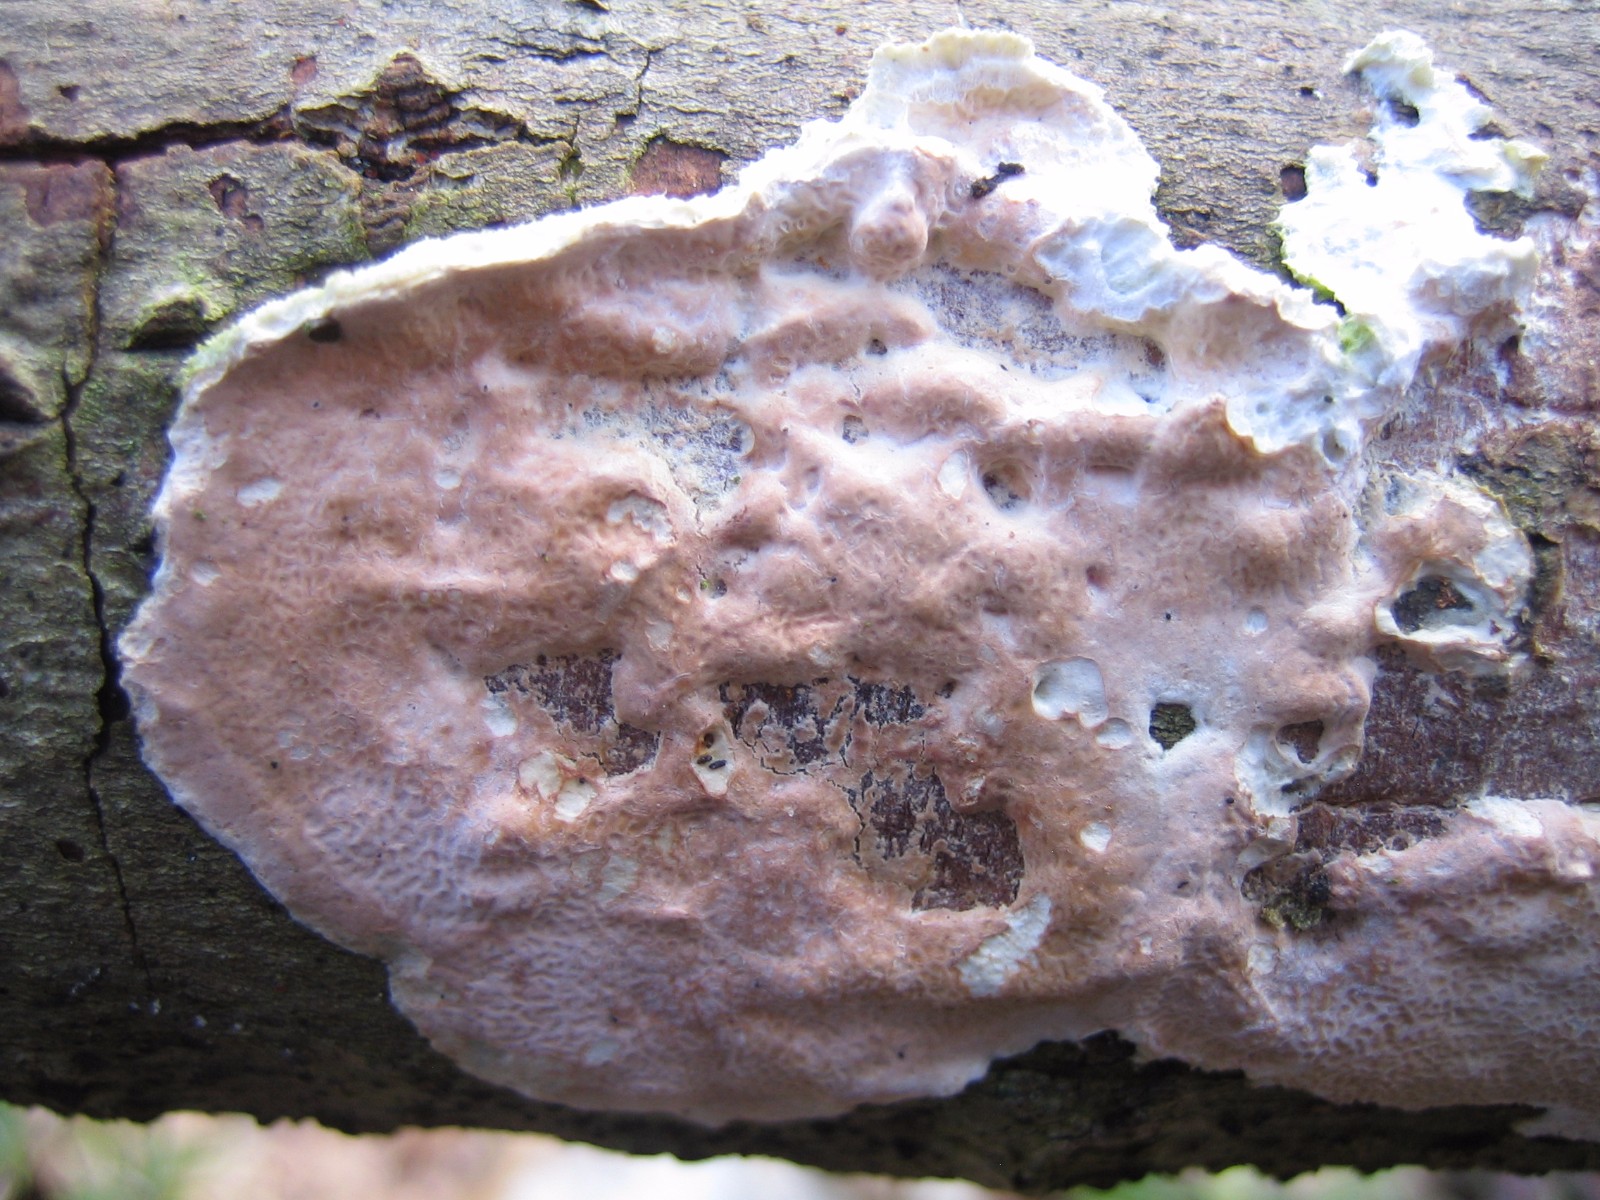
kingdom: Fungi
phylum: Basidiomycota
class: Agaricomycetes
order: Polyporales
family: Irpicaceae
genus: Byssomerulius
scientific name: Byssomerulius corium
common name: læder-åresvamp
